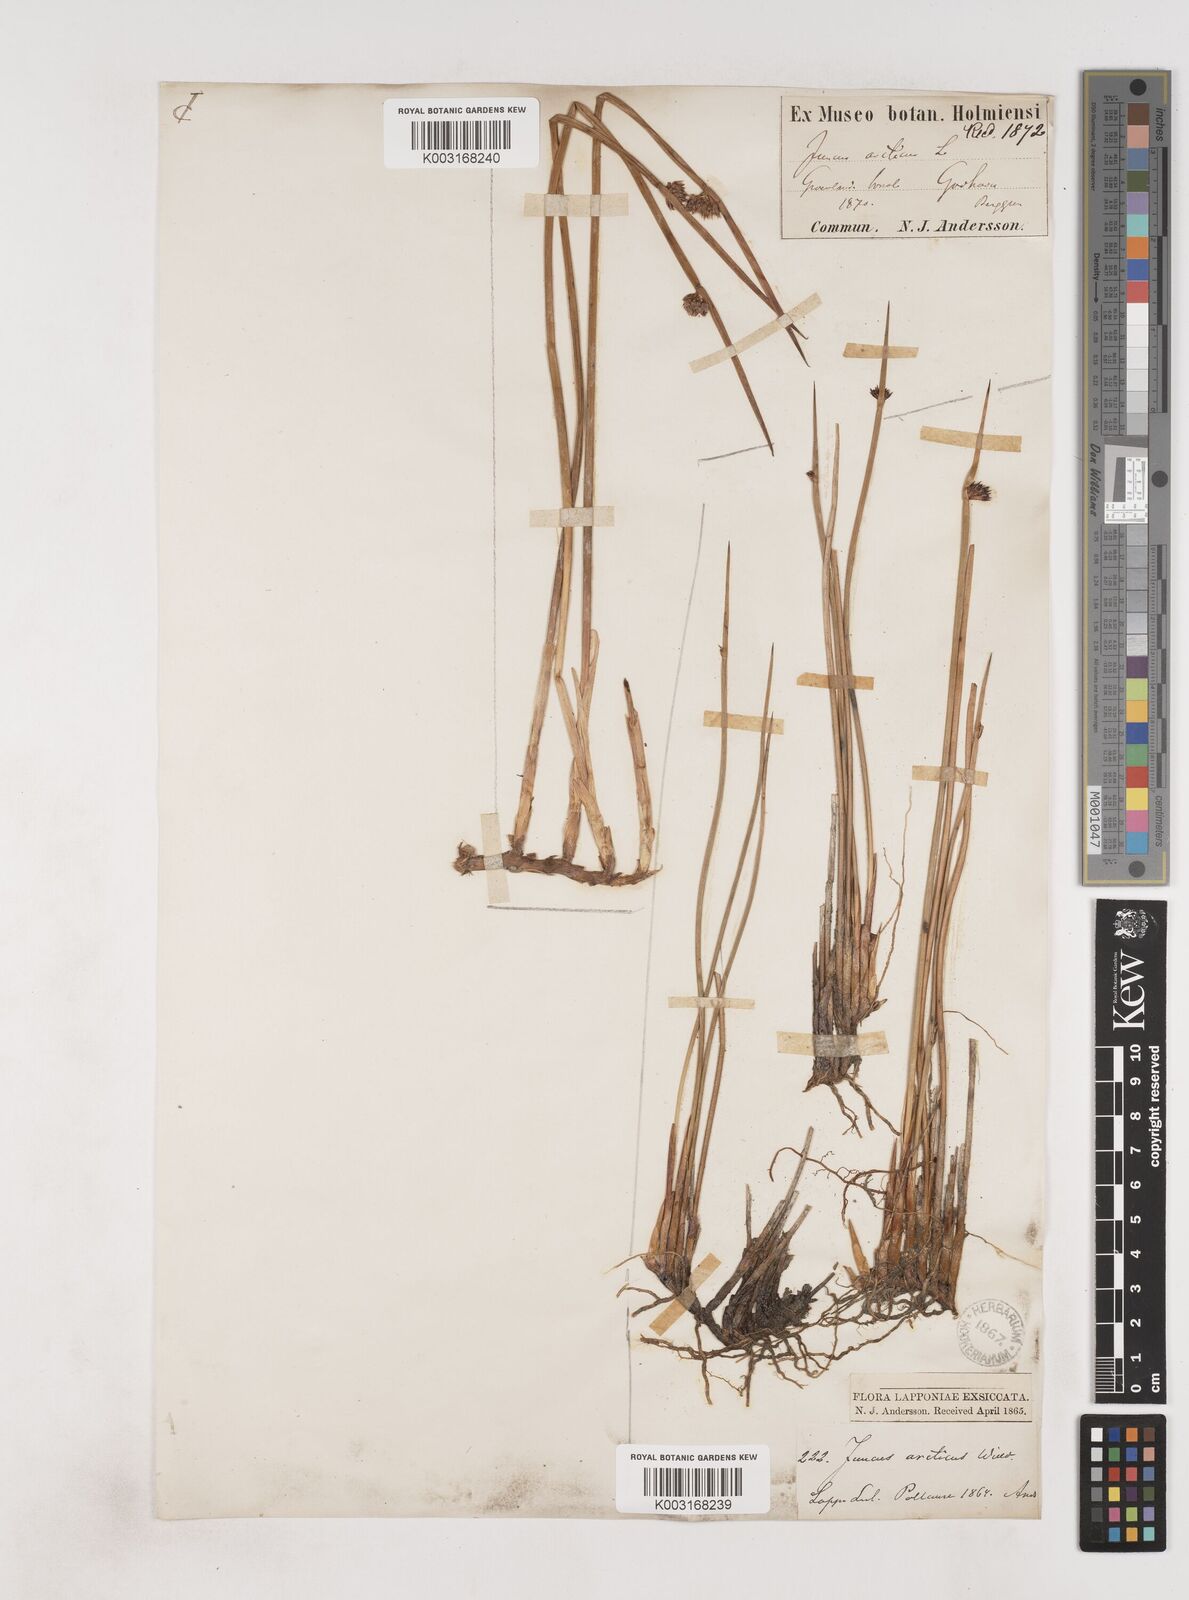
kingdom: Plantae
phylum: Tracheophyta
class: Liliopsida
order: Poales
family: Juncaceae
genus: Juncus
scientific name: Juncus arcticus
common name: Arctic rush
